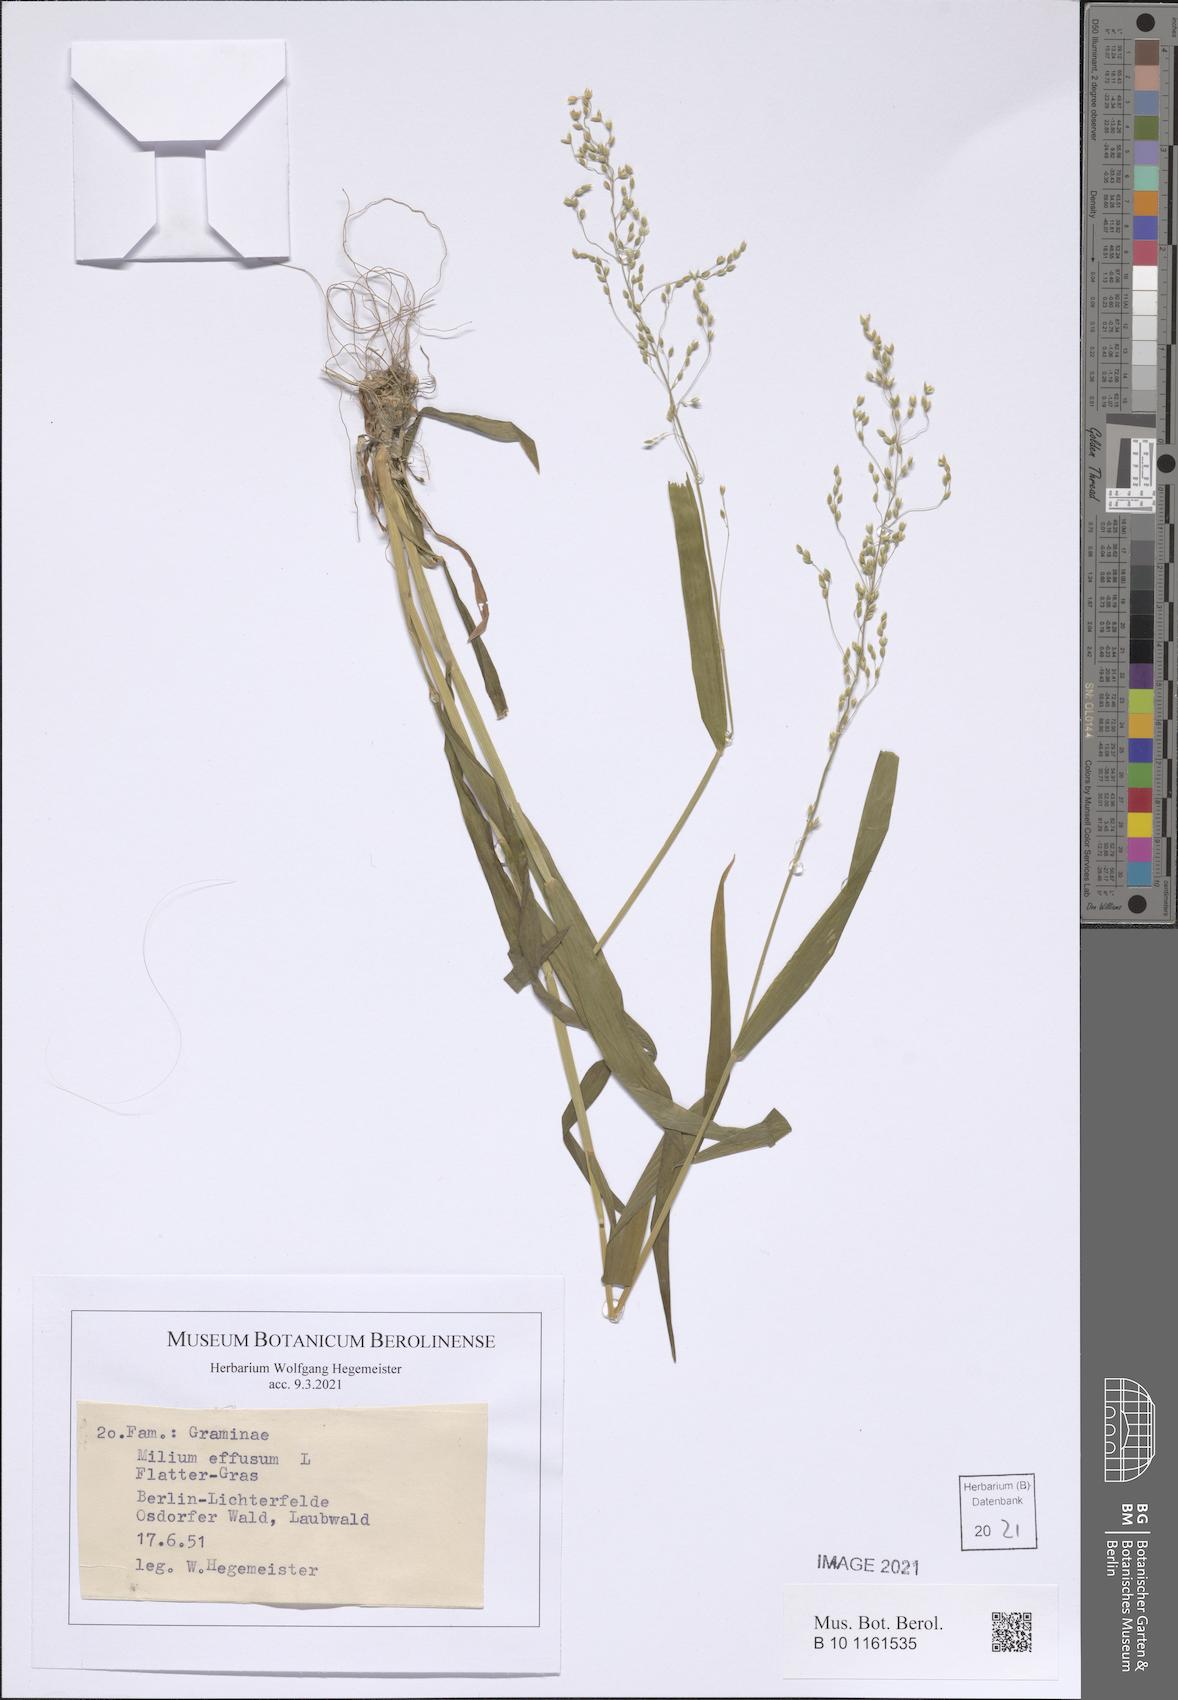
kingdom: Plantae
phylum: Tracheophyta
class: Liliopsida
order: Poales
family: Poaceae
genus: Milium
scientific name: Milium effusum
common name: Wood millet
